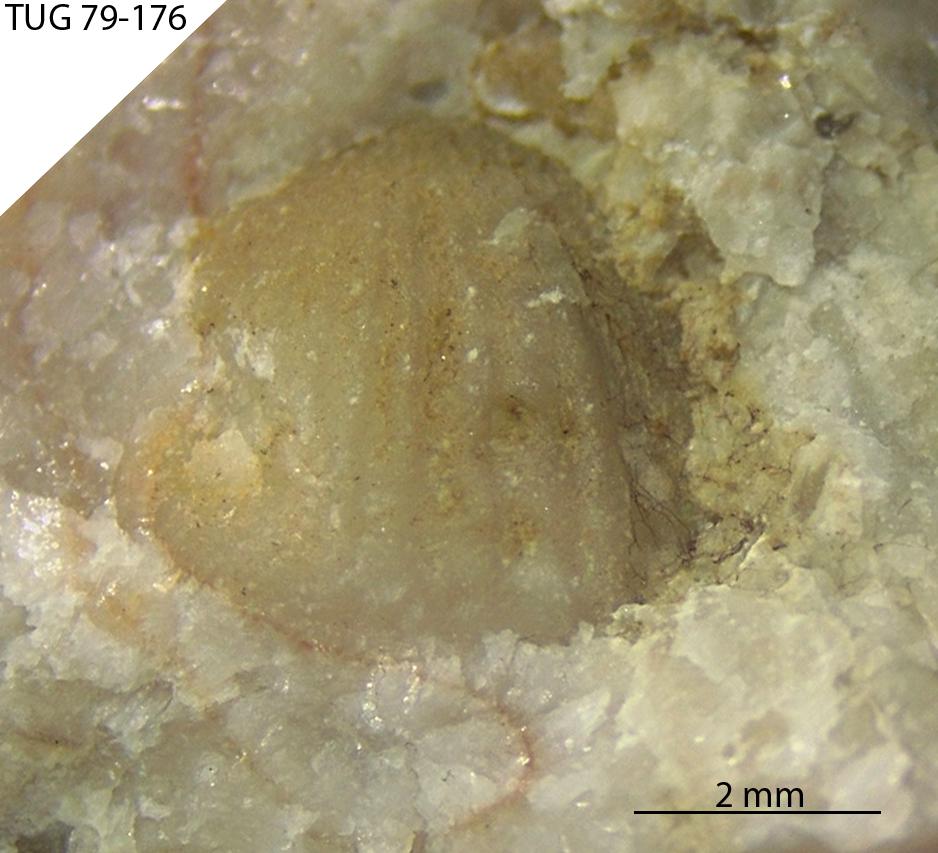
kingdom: Animalia
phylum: Brachiopoda
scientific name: Brachiopoda
